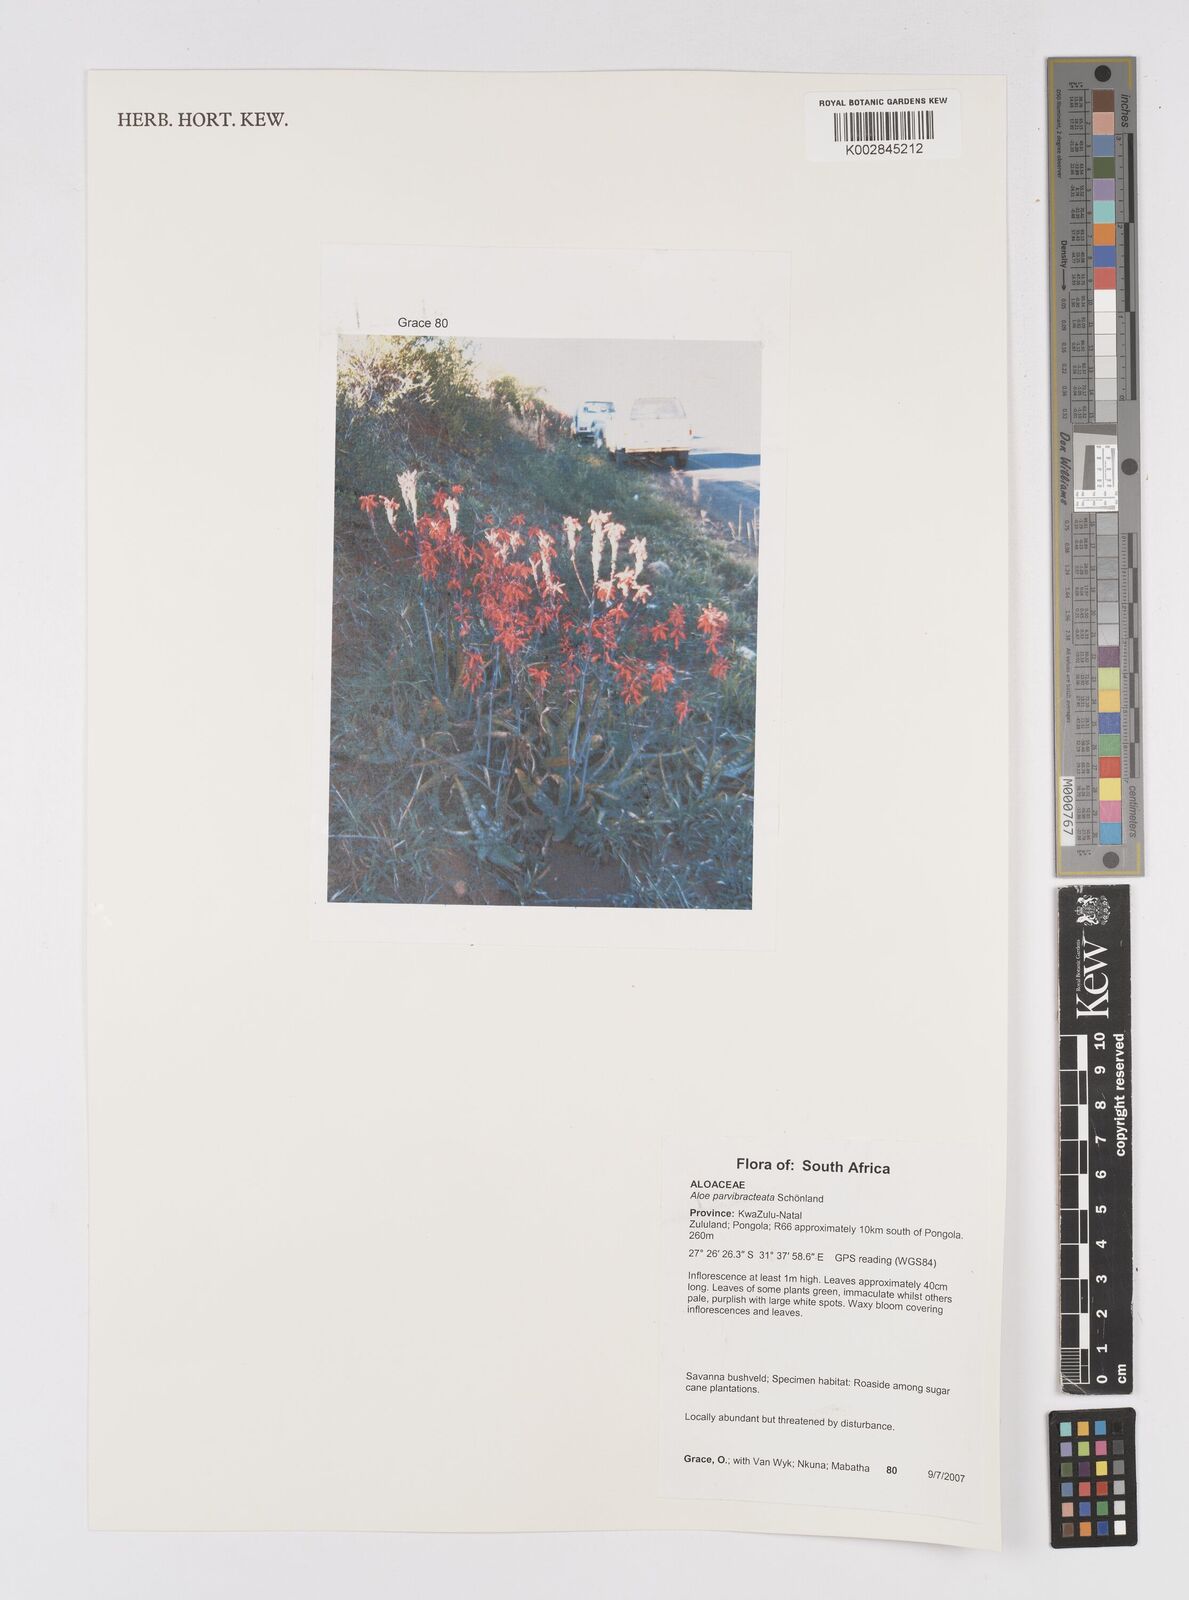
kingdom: Plantae
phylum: Tracheophyta
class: Liliopsida
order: Asparagales
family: Asphodelaceae
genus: Aloe
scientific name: Aloe parvibracteata
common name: Lowveld spotted aloe
